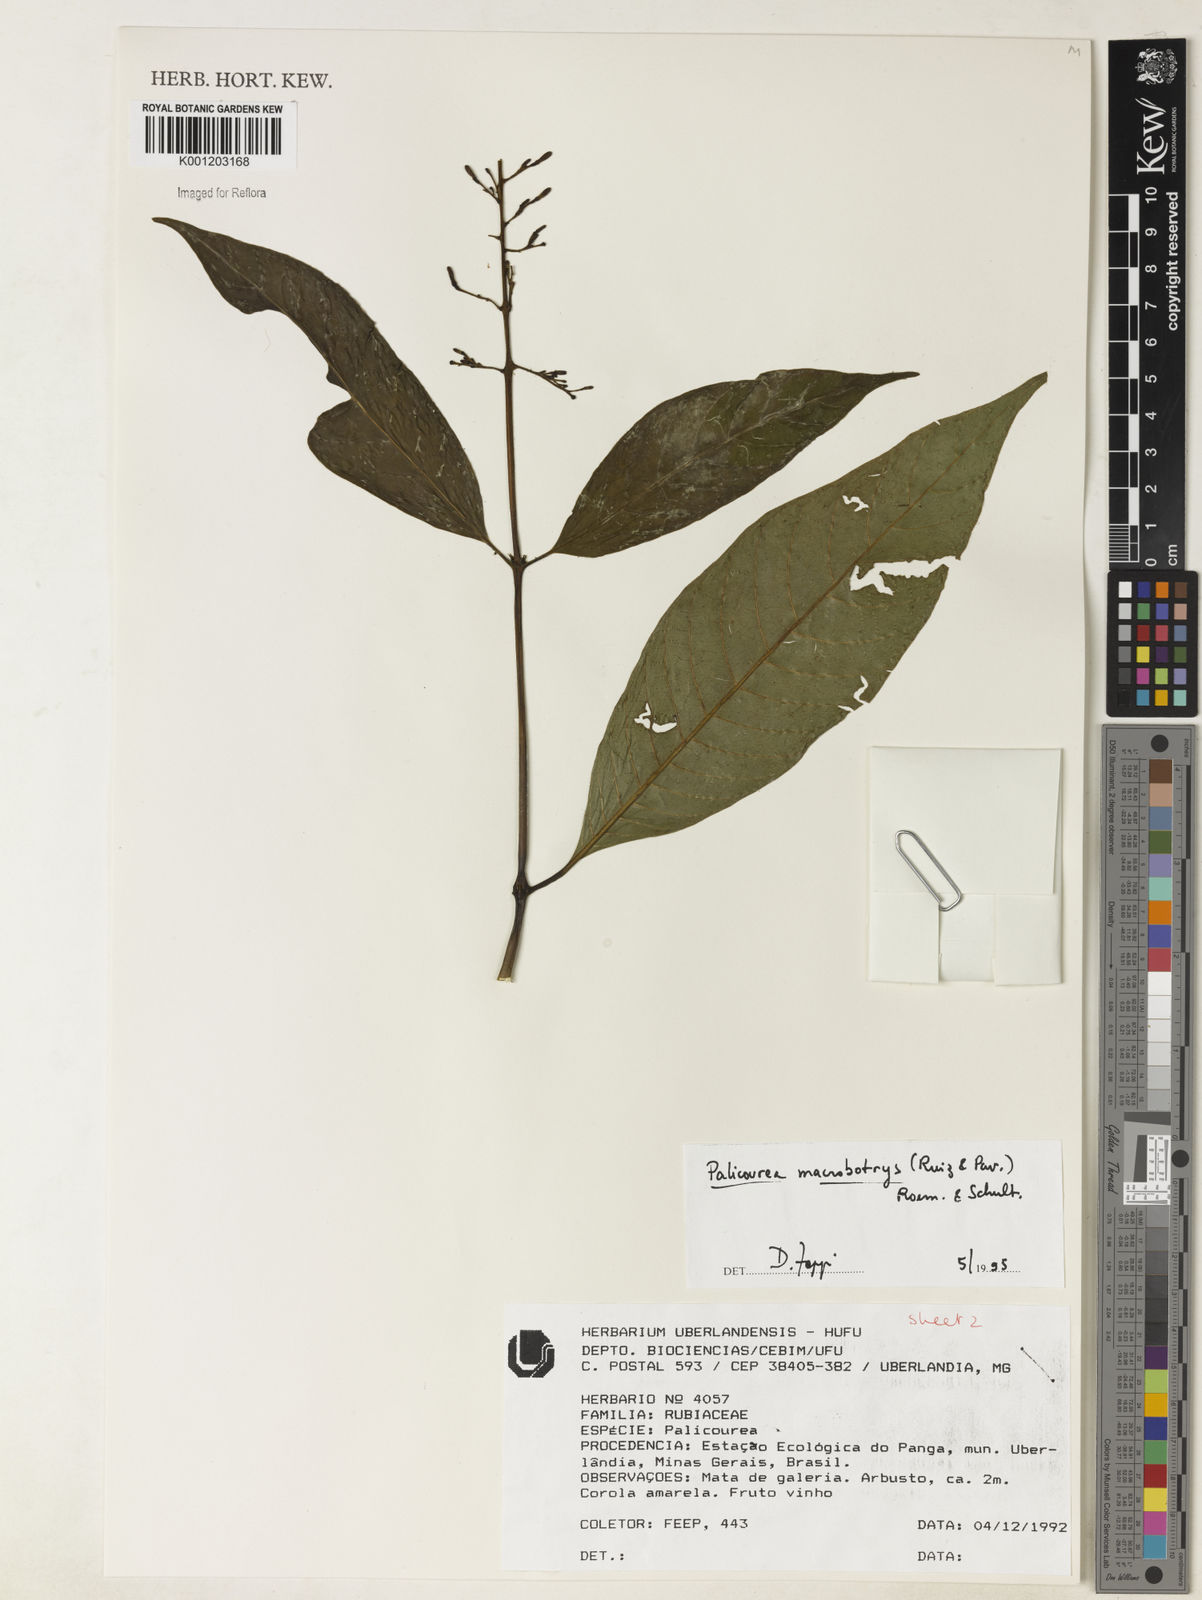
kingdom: Plantae
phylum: Tracheophyta
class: Magnoliopsida
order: Gentianales
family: Rubiaceae
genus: Palicourea
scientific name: Palicourea macrobotrys
